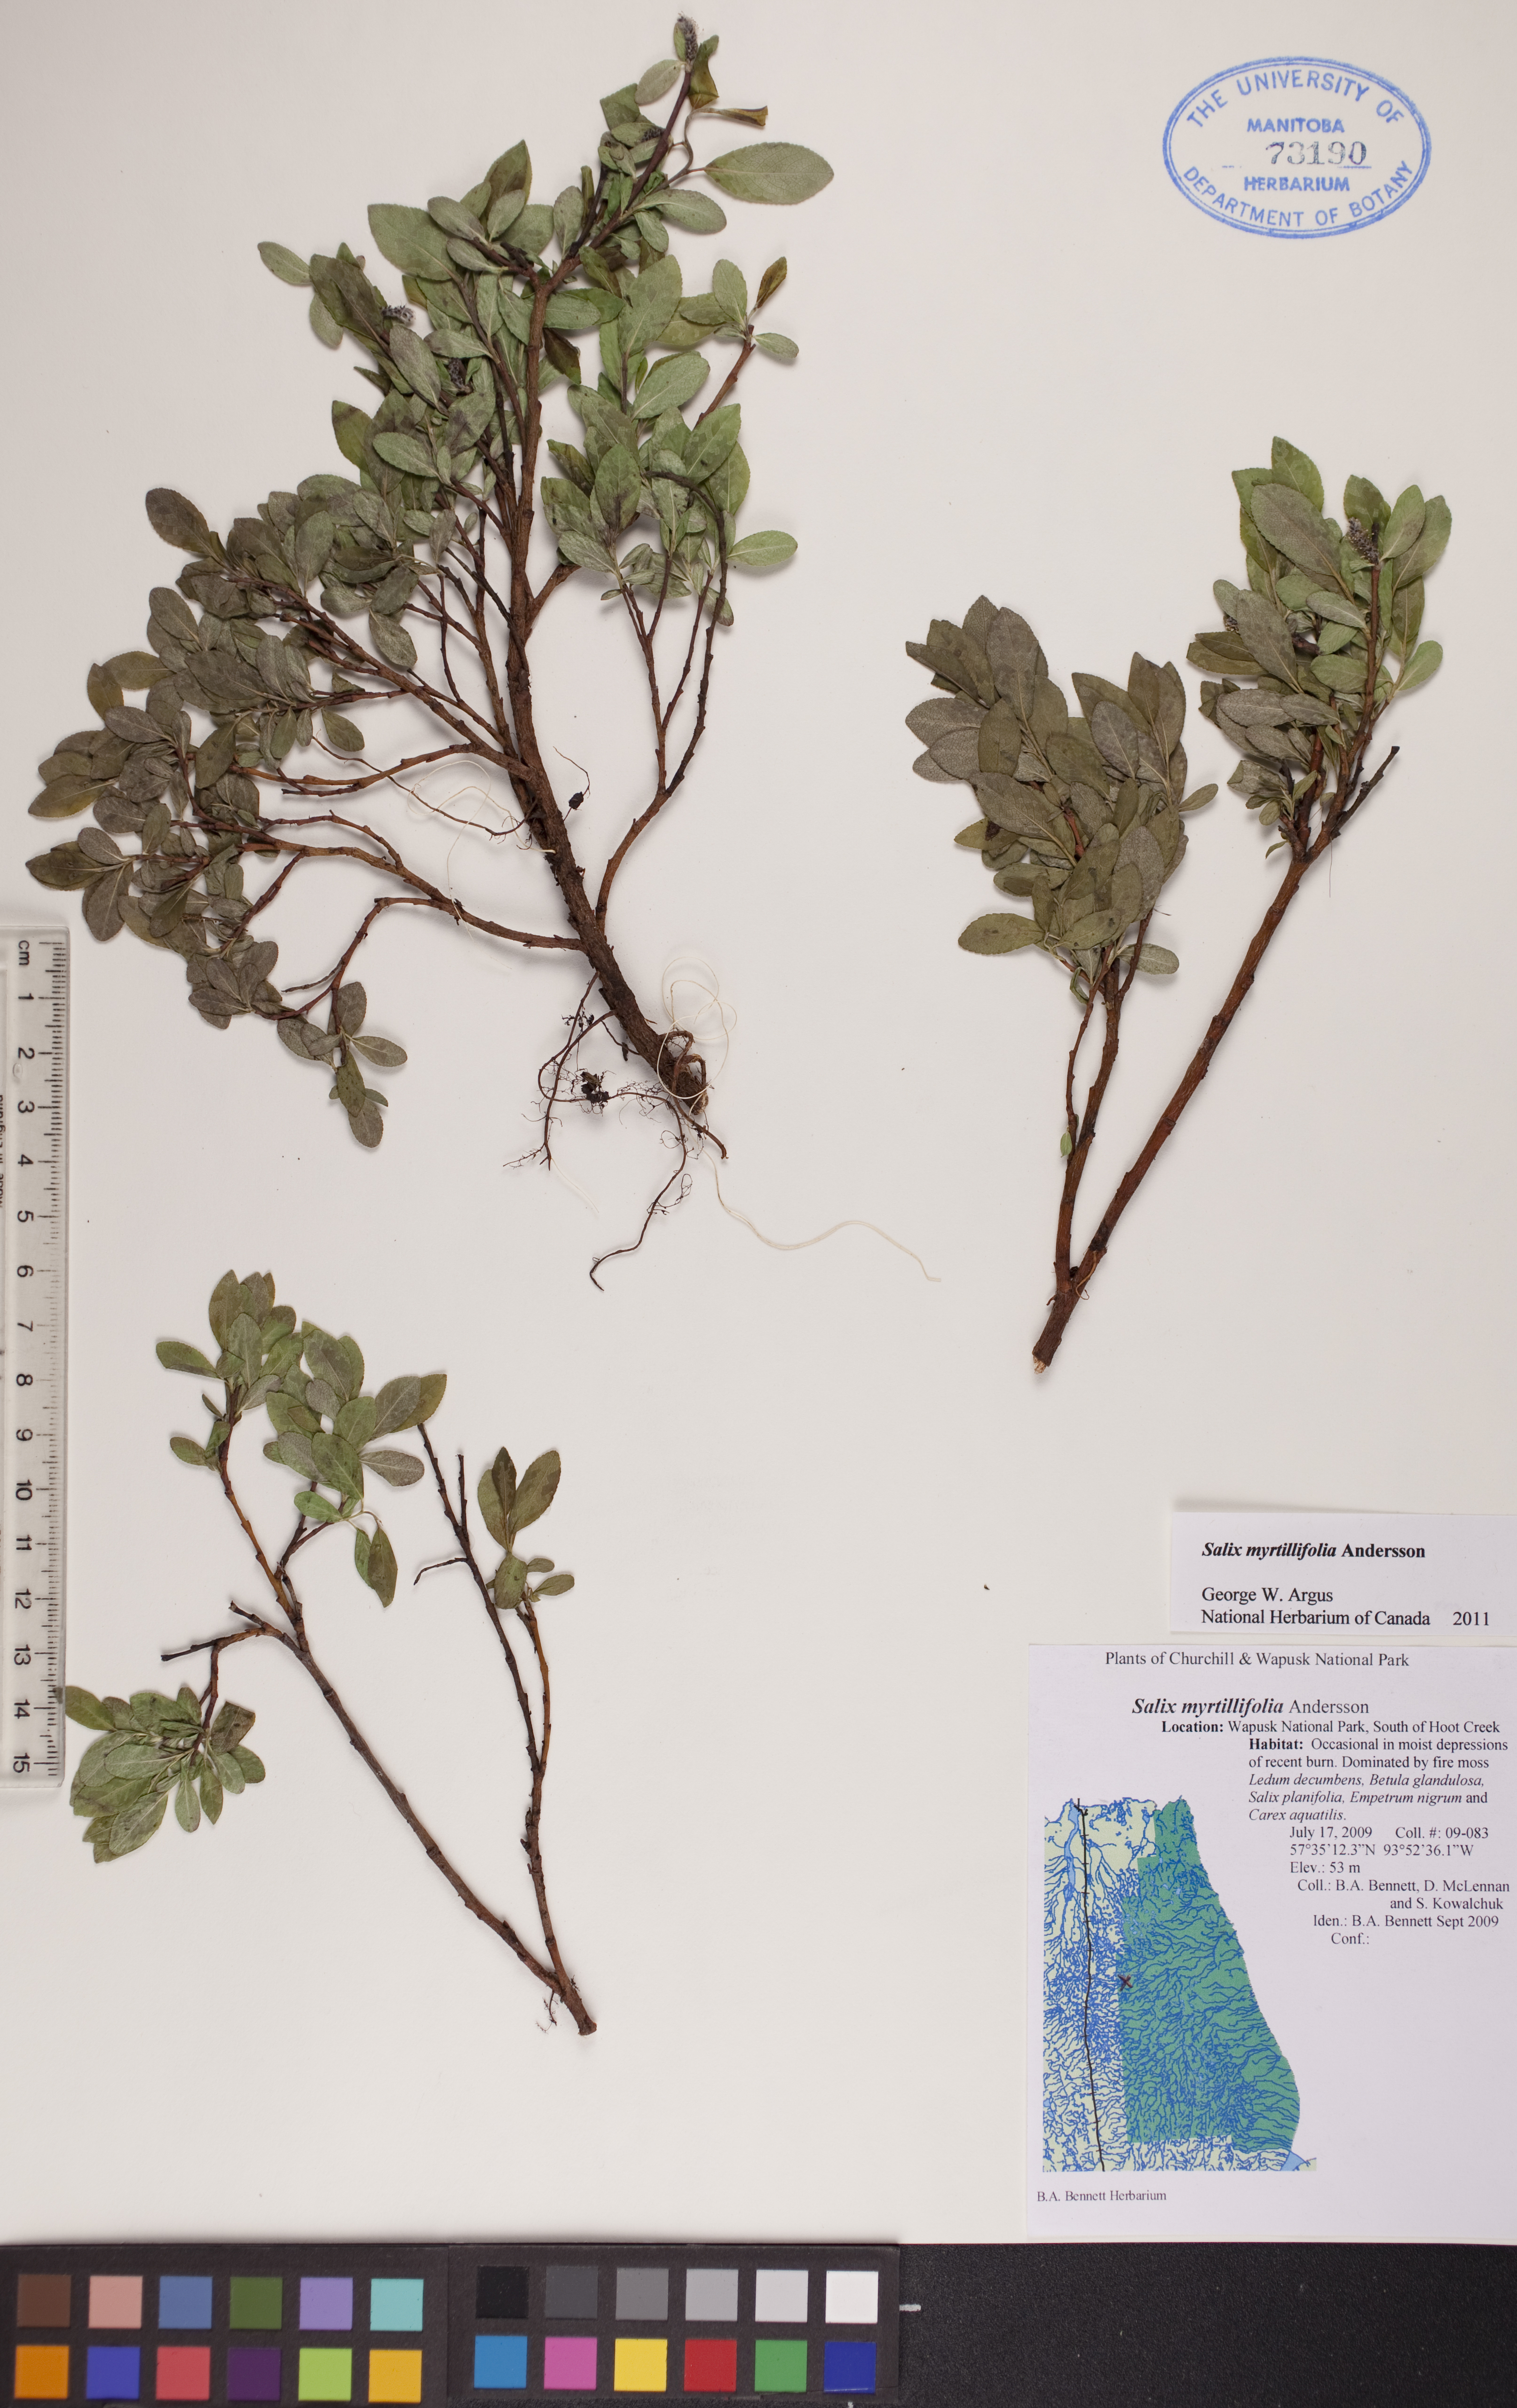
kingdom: Plantae
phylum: Tracheophyta
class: Magnoliopsida
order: Malpighiales
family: Salicaceae
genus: Salix
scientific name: Salix myrtillifolia
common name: Bilberry willow
